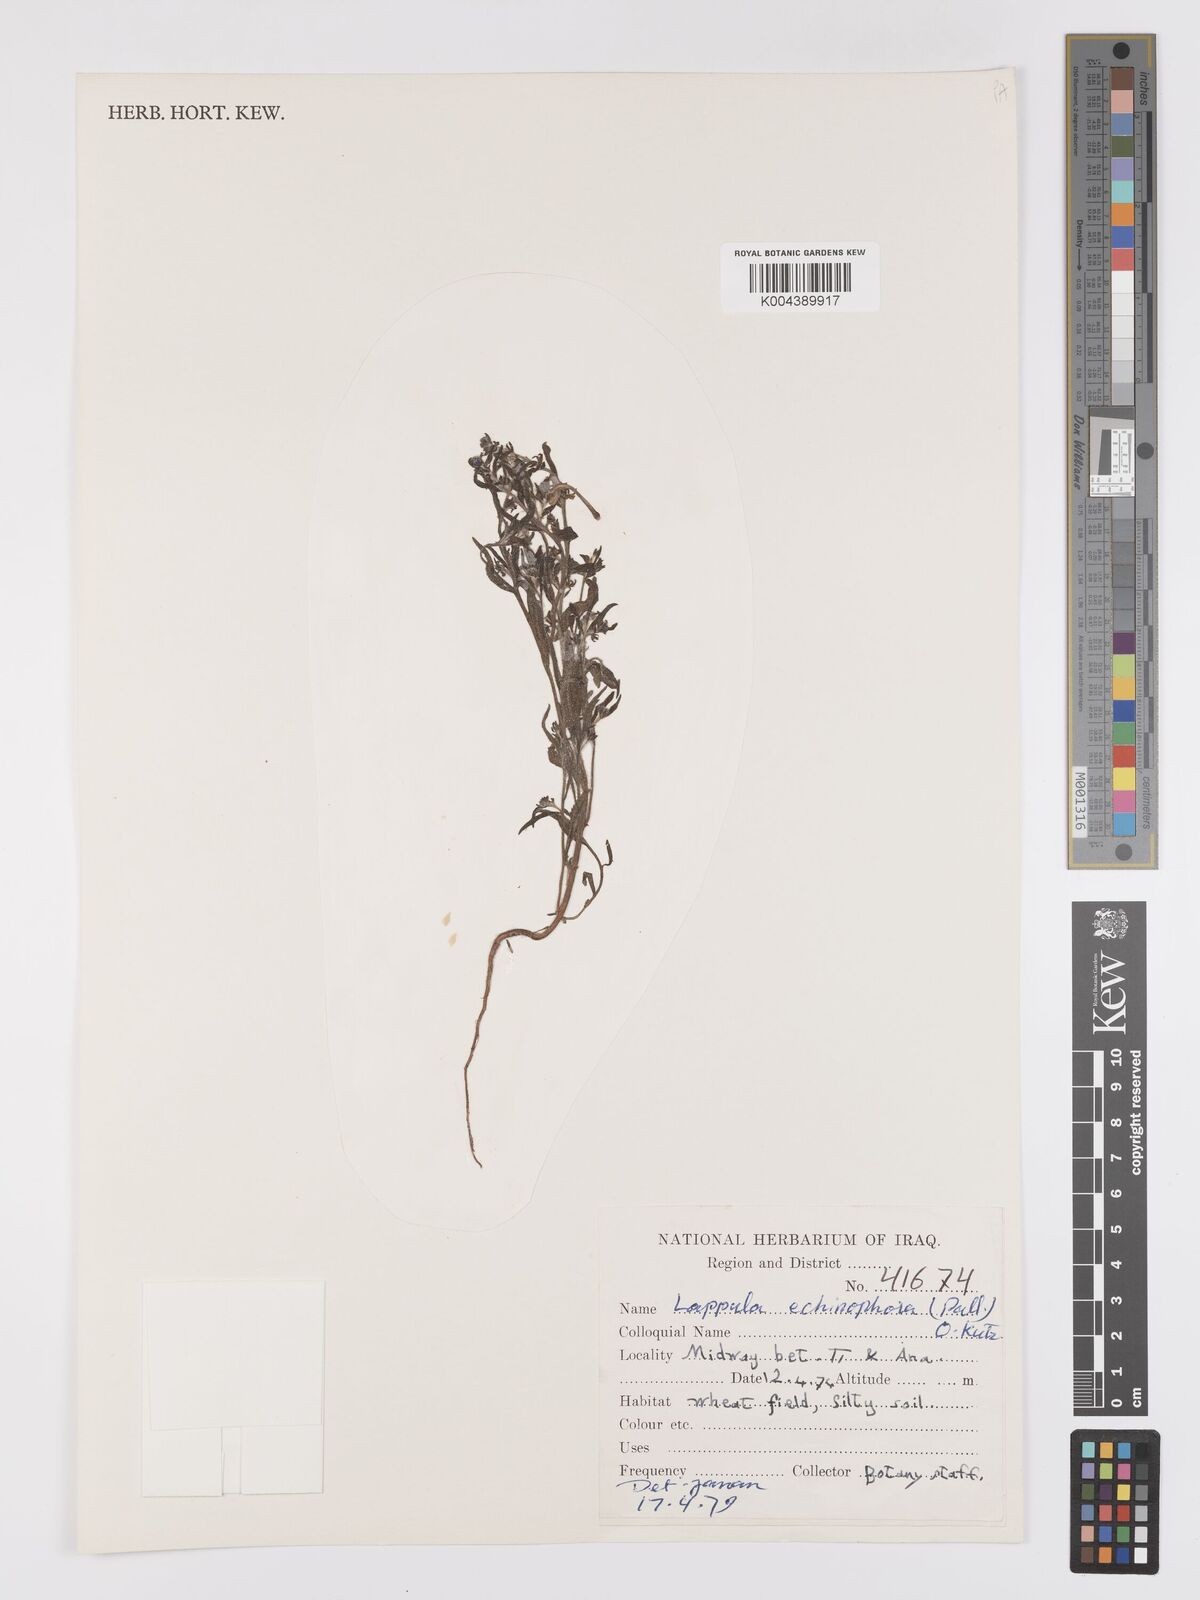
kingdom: Plantae
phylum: Tracheophyta
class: Magnoliopsida
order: Boraginales
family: Boraginaceae
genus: Heterocaryum
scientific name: Heterocaryum echinophorum
